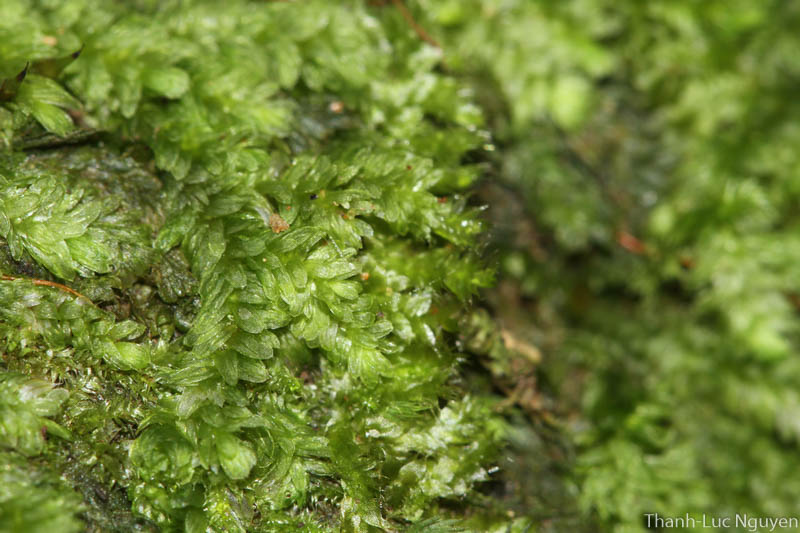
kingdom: Plantae
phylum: Bryophyta
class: Bryopsida
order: Hookeriales
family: Pilotrichaceae
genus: Callicostella
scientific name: Callicostella
